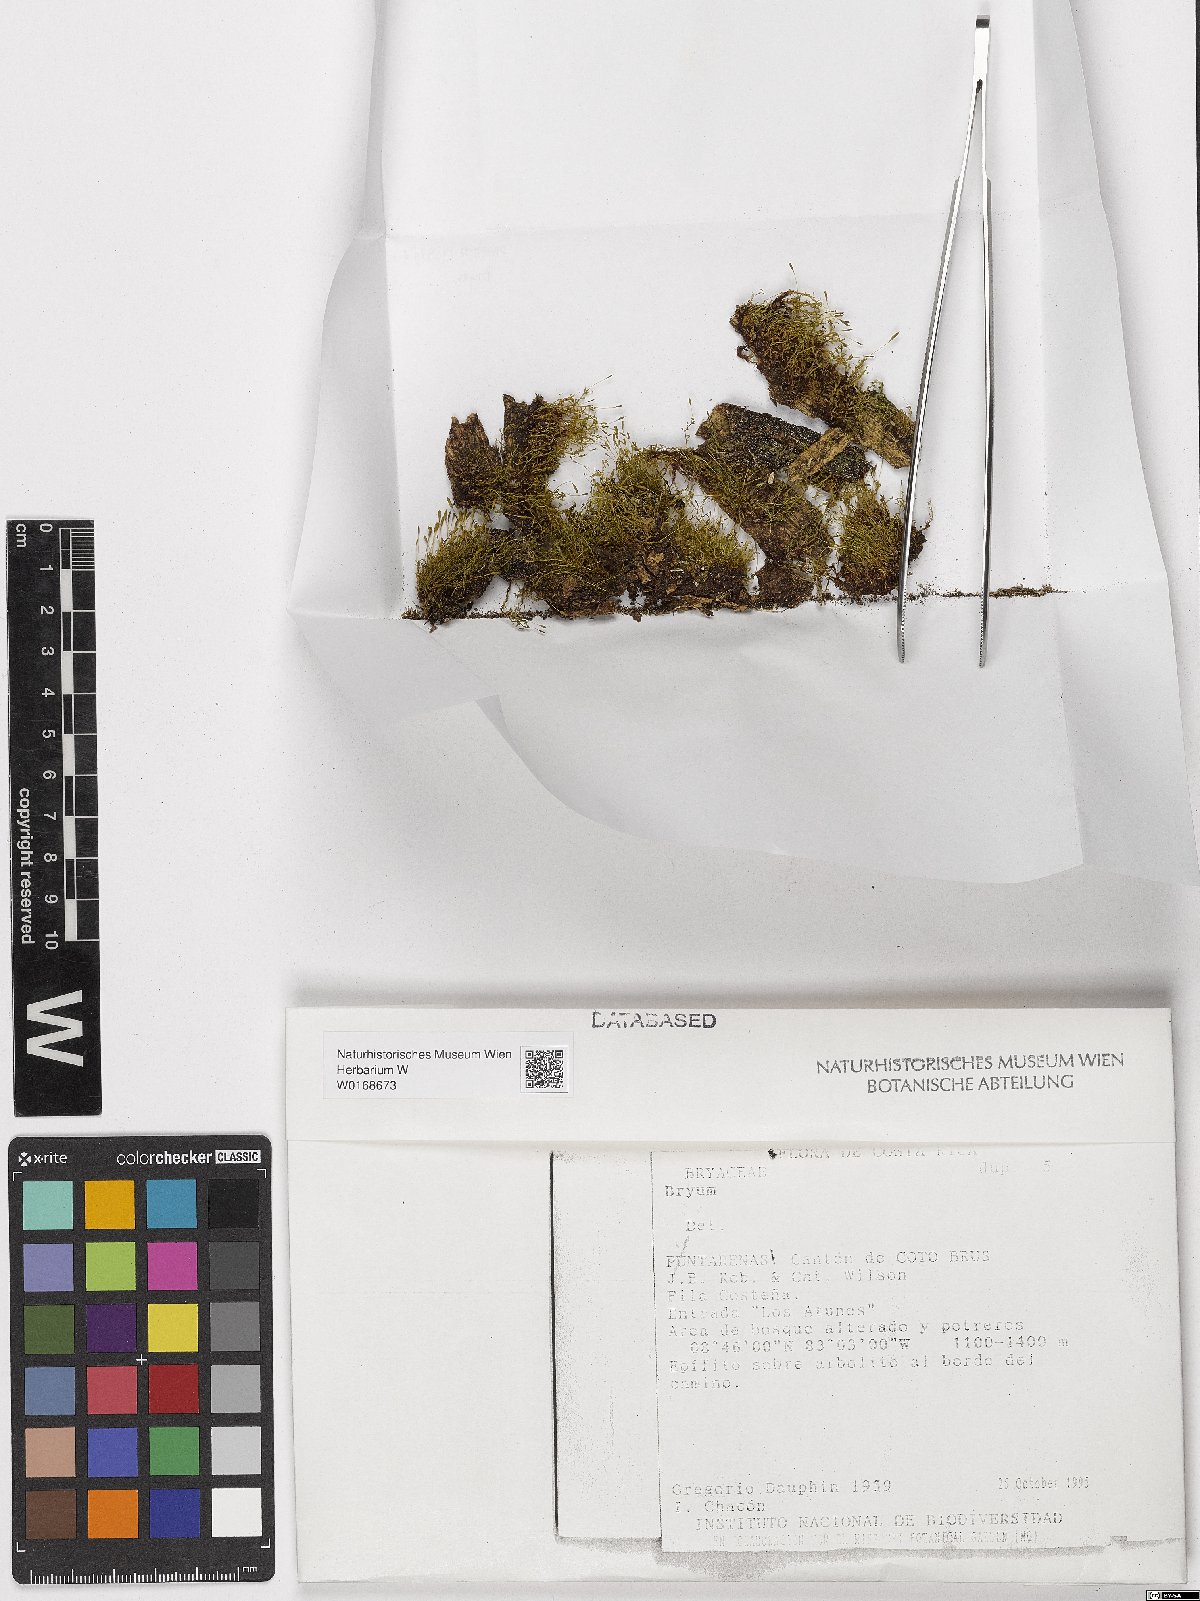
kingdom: Plantae
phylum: Bryophyta
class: Bryopsida
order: Bryales
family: Bryaceae
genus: Bryum
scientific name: Bryum
